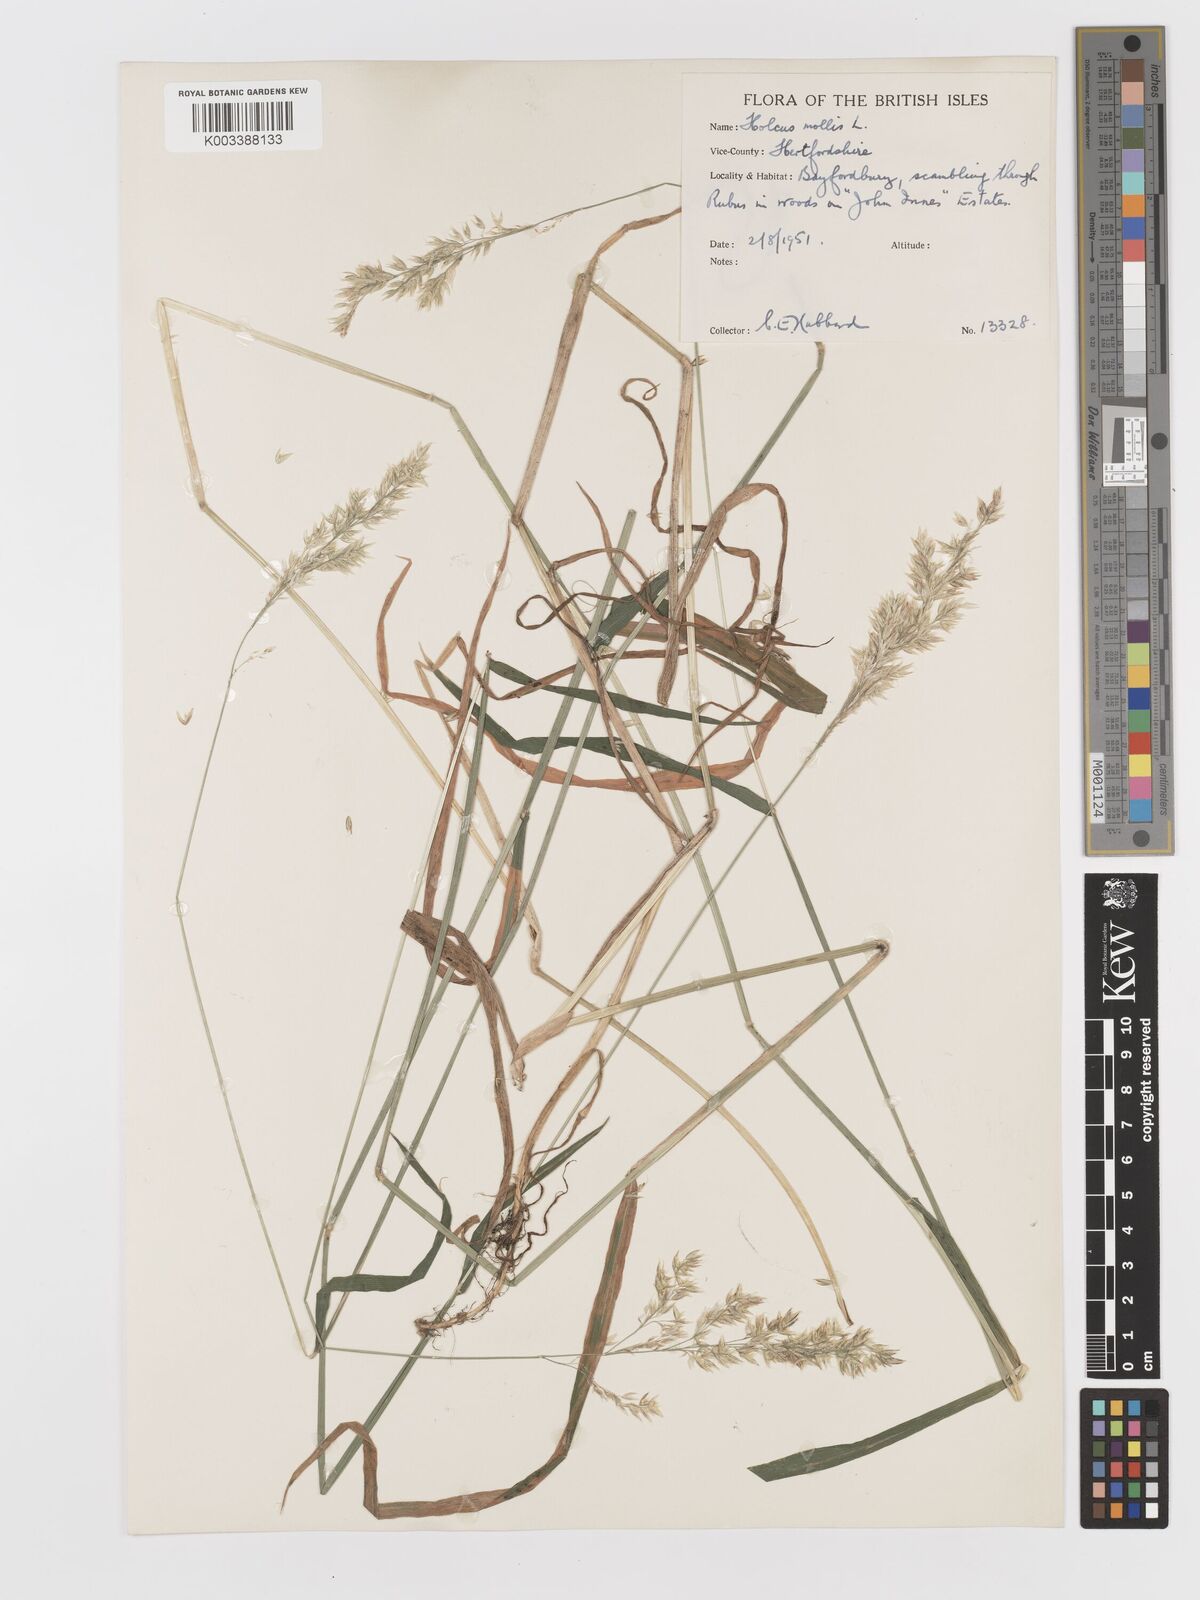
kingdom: Plantae
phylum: Tracheophyta
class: Liliopsida
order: Poales
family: Poaceae
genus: Holcus
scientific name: Holcus mollis
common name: Creeping velvetgrass
